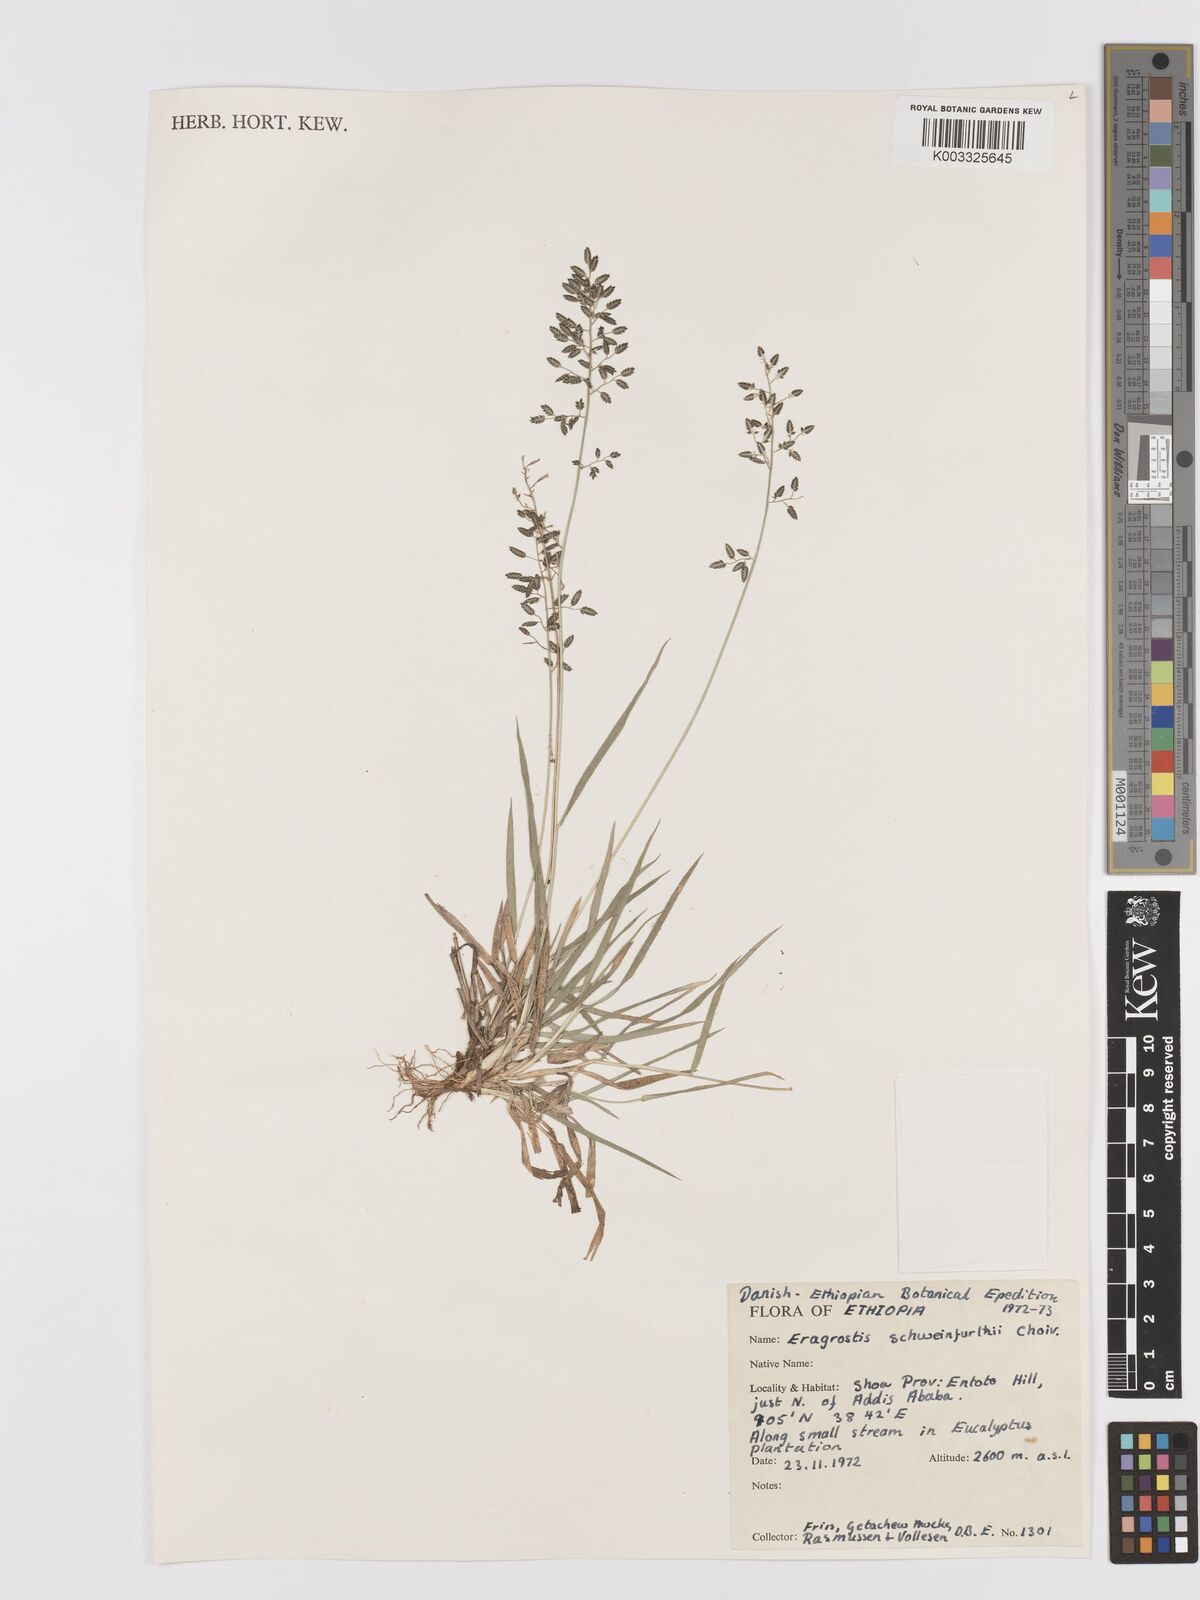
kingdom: Plantae
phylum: Tracheophyta
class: Liliopsida
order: Poales
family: Poaceae
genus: Eragrostis
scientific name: Eragrostis schweinfurthii
